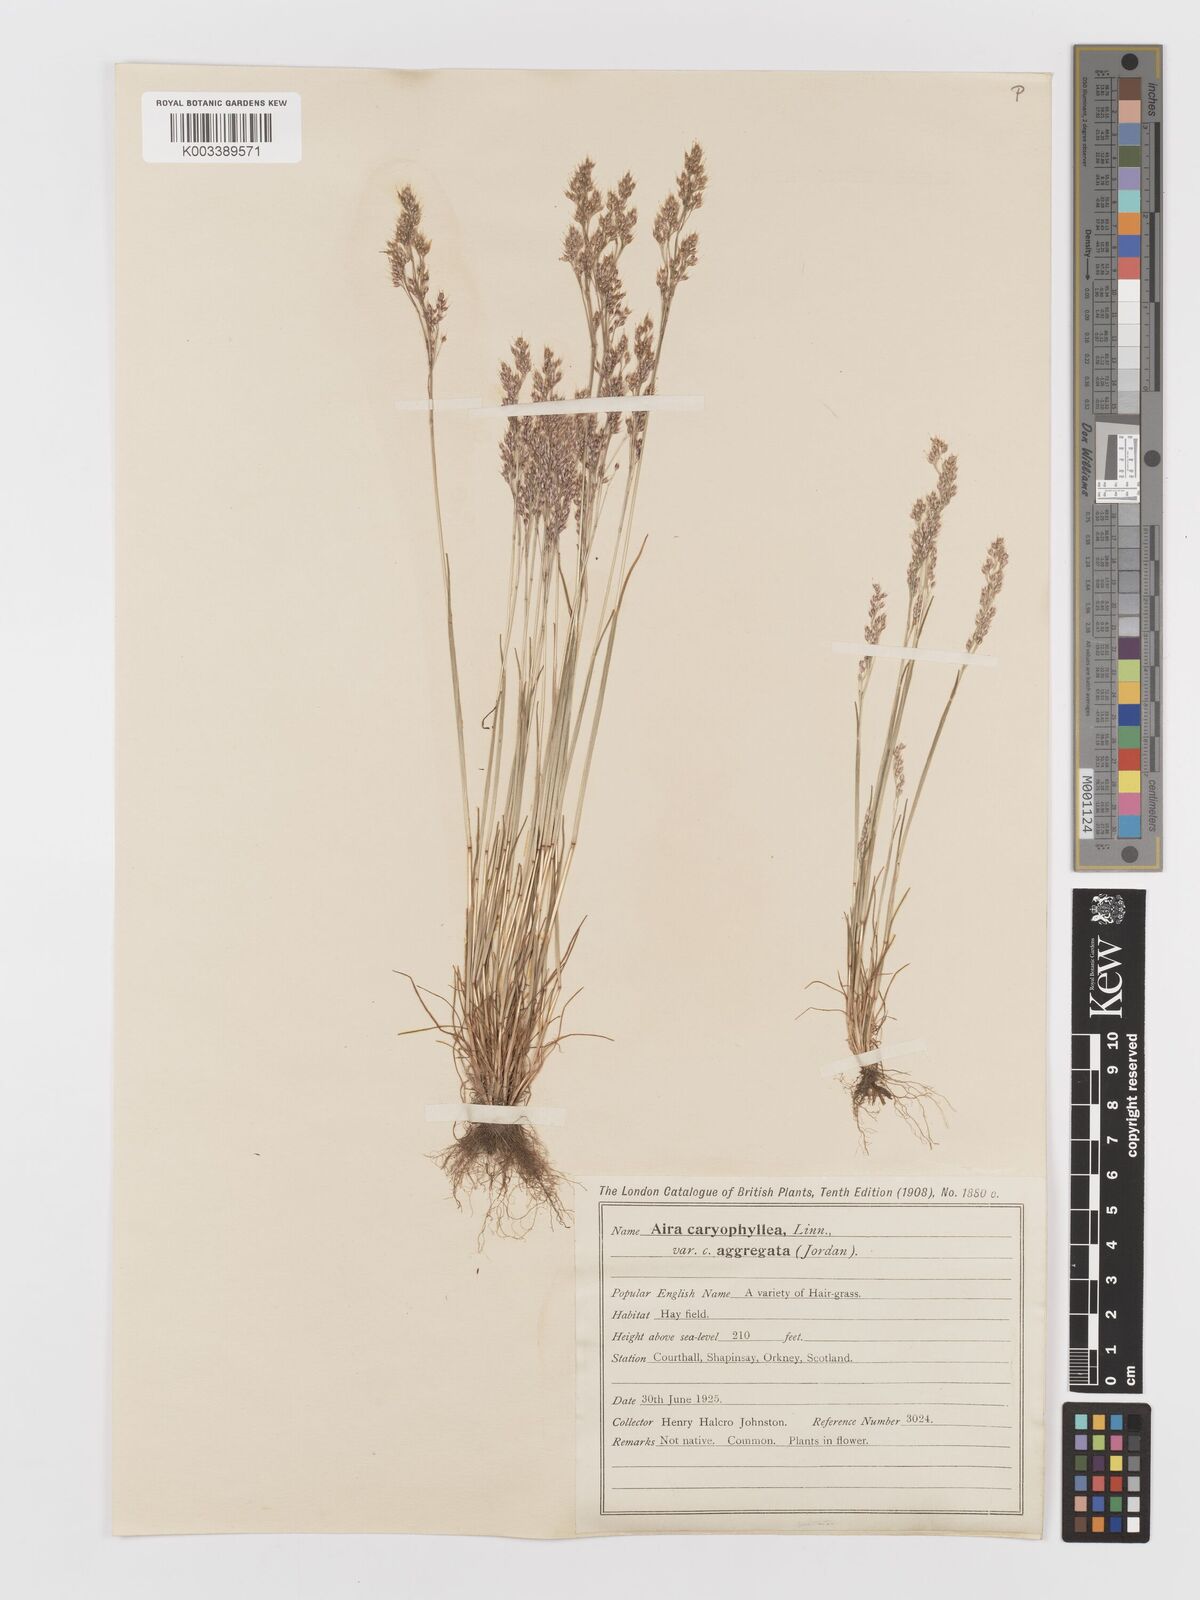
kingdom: Plantae
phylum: Tracheophyta
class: Liliopsida
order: Poales
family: Poaceae
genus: Aira
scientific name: Aira caryophyllea
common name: Silver hairgrass
